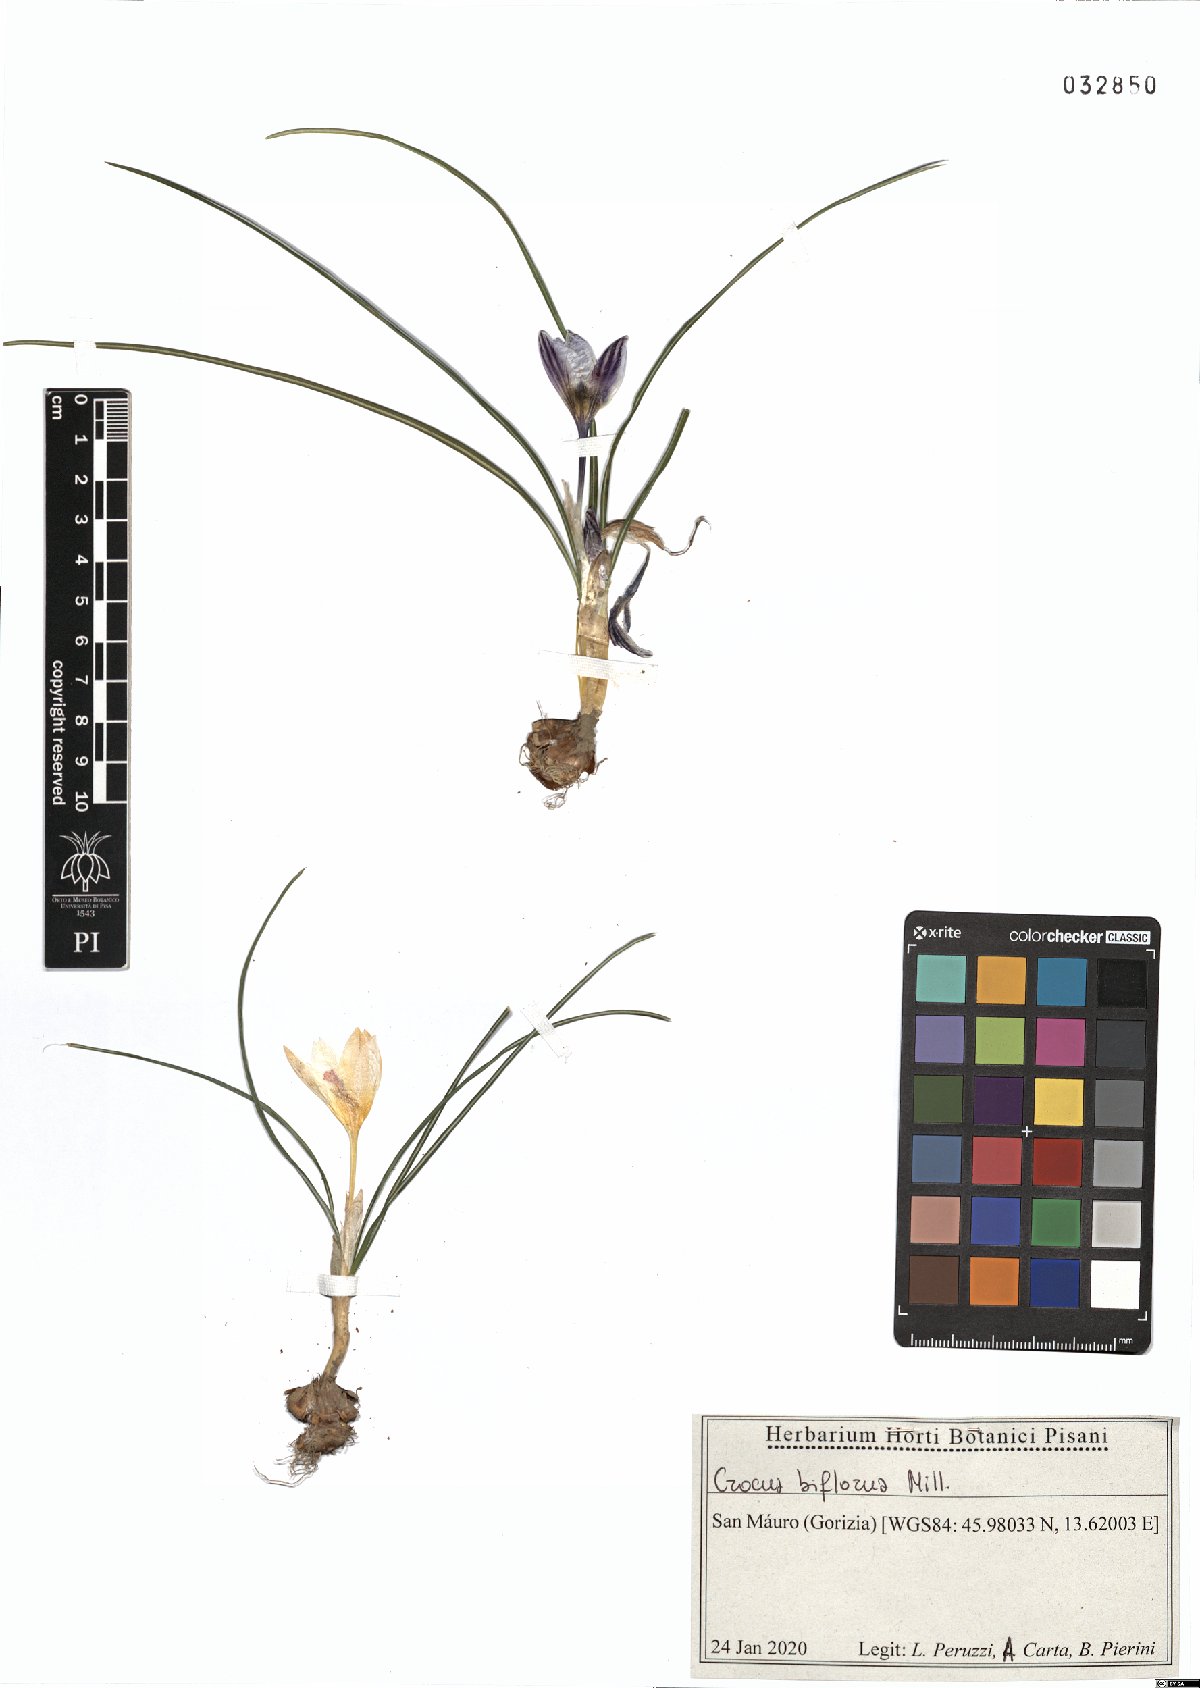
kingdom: Plantae
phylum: Tracheophyta
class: Liliopsida
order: Asparagales
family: Iridaceae
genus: Crocus
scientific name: Crocus biflorus
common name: Silvery crocus
